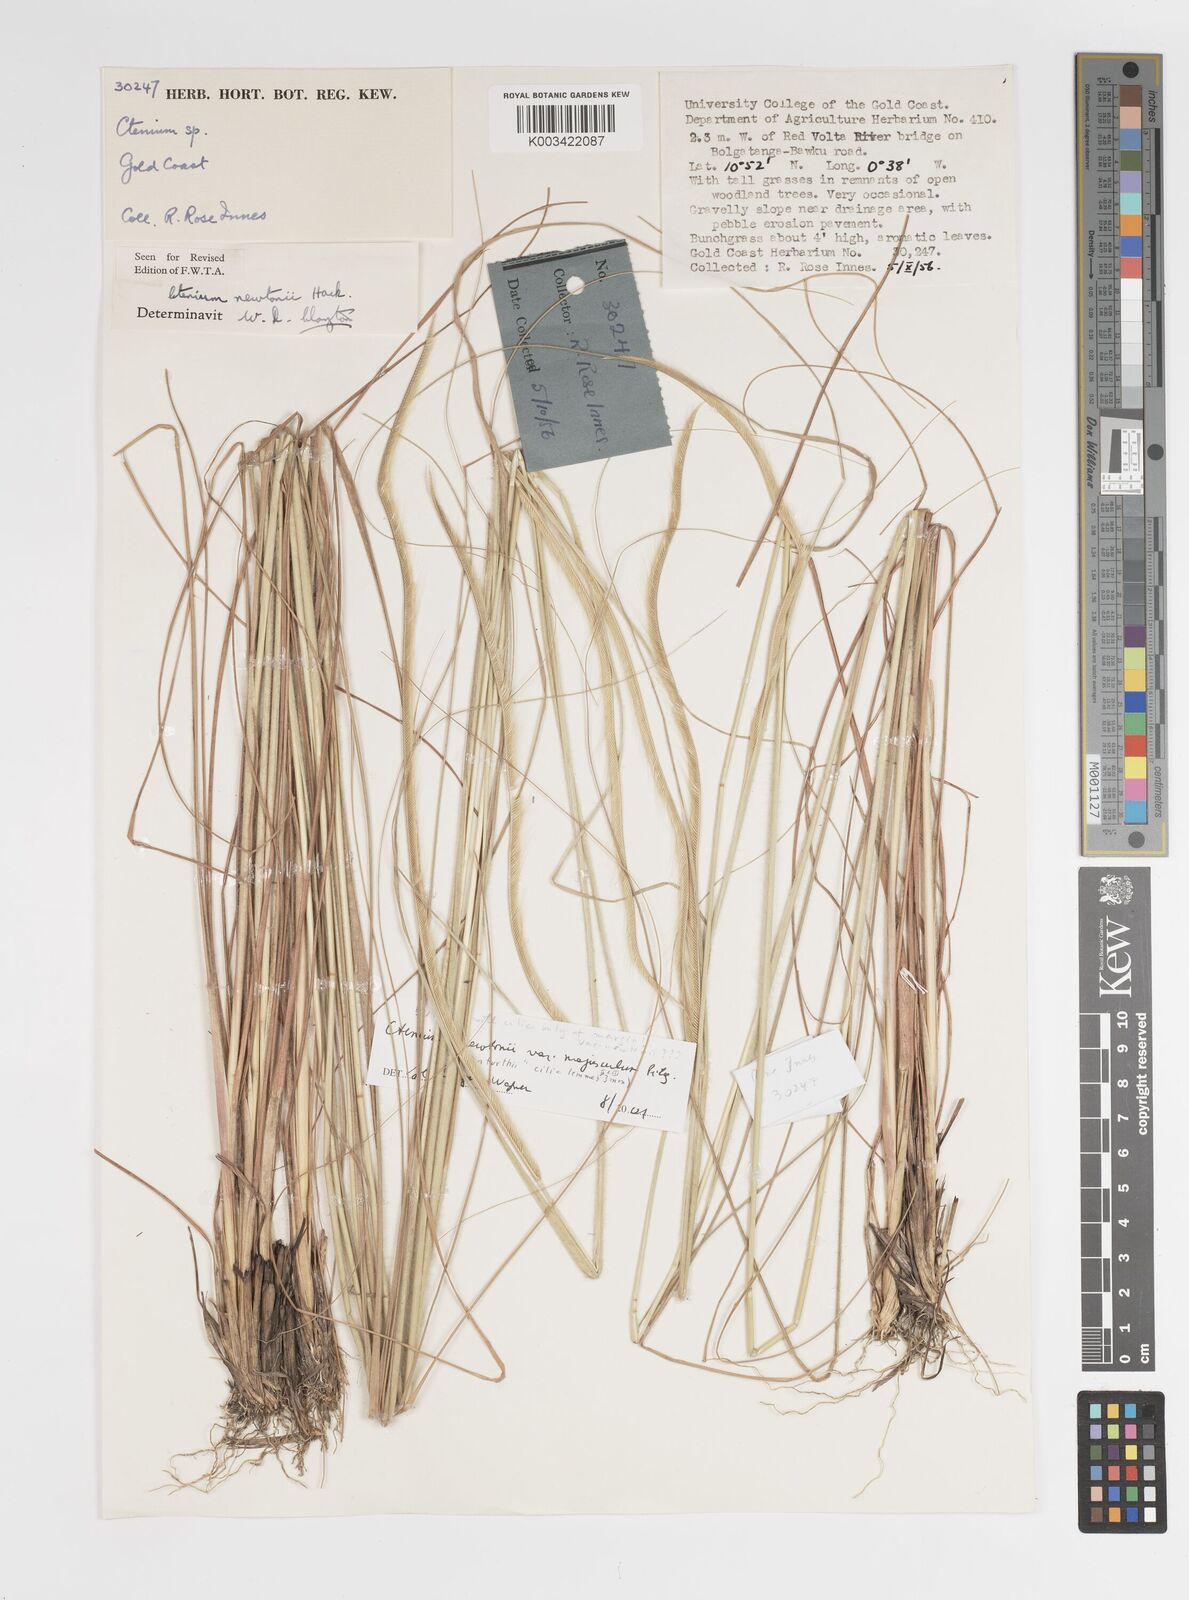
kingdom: Plantae
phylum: Tracheophyta
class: Liliopsida
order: Poales
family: Poaceae
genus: Ctenium
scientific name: Ctenium newtonii
